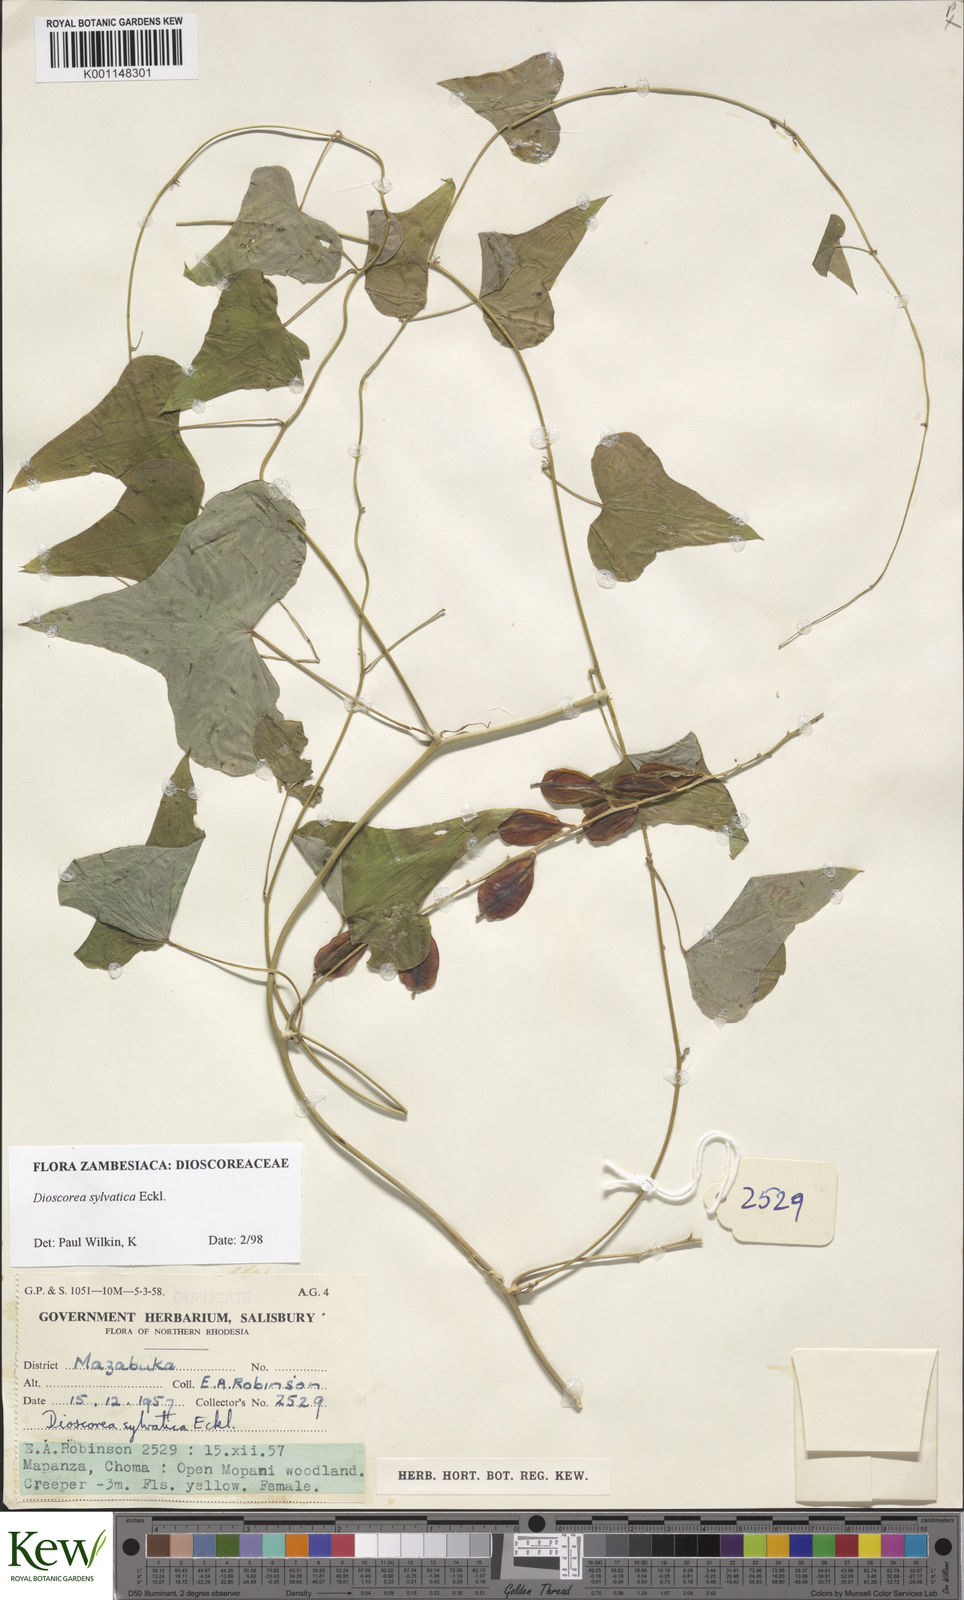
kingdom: Plantae
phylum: Tracheophyta
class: Liliopsida
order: Dioscoreales
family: Dioscoreaceae
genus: Dioscorea
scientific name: Dioscorea sylvatica
